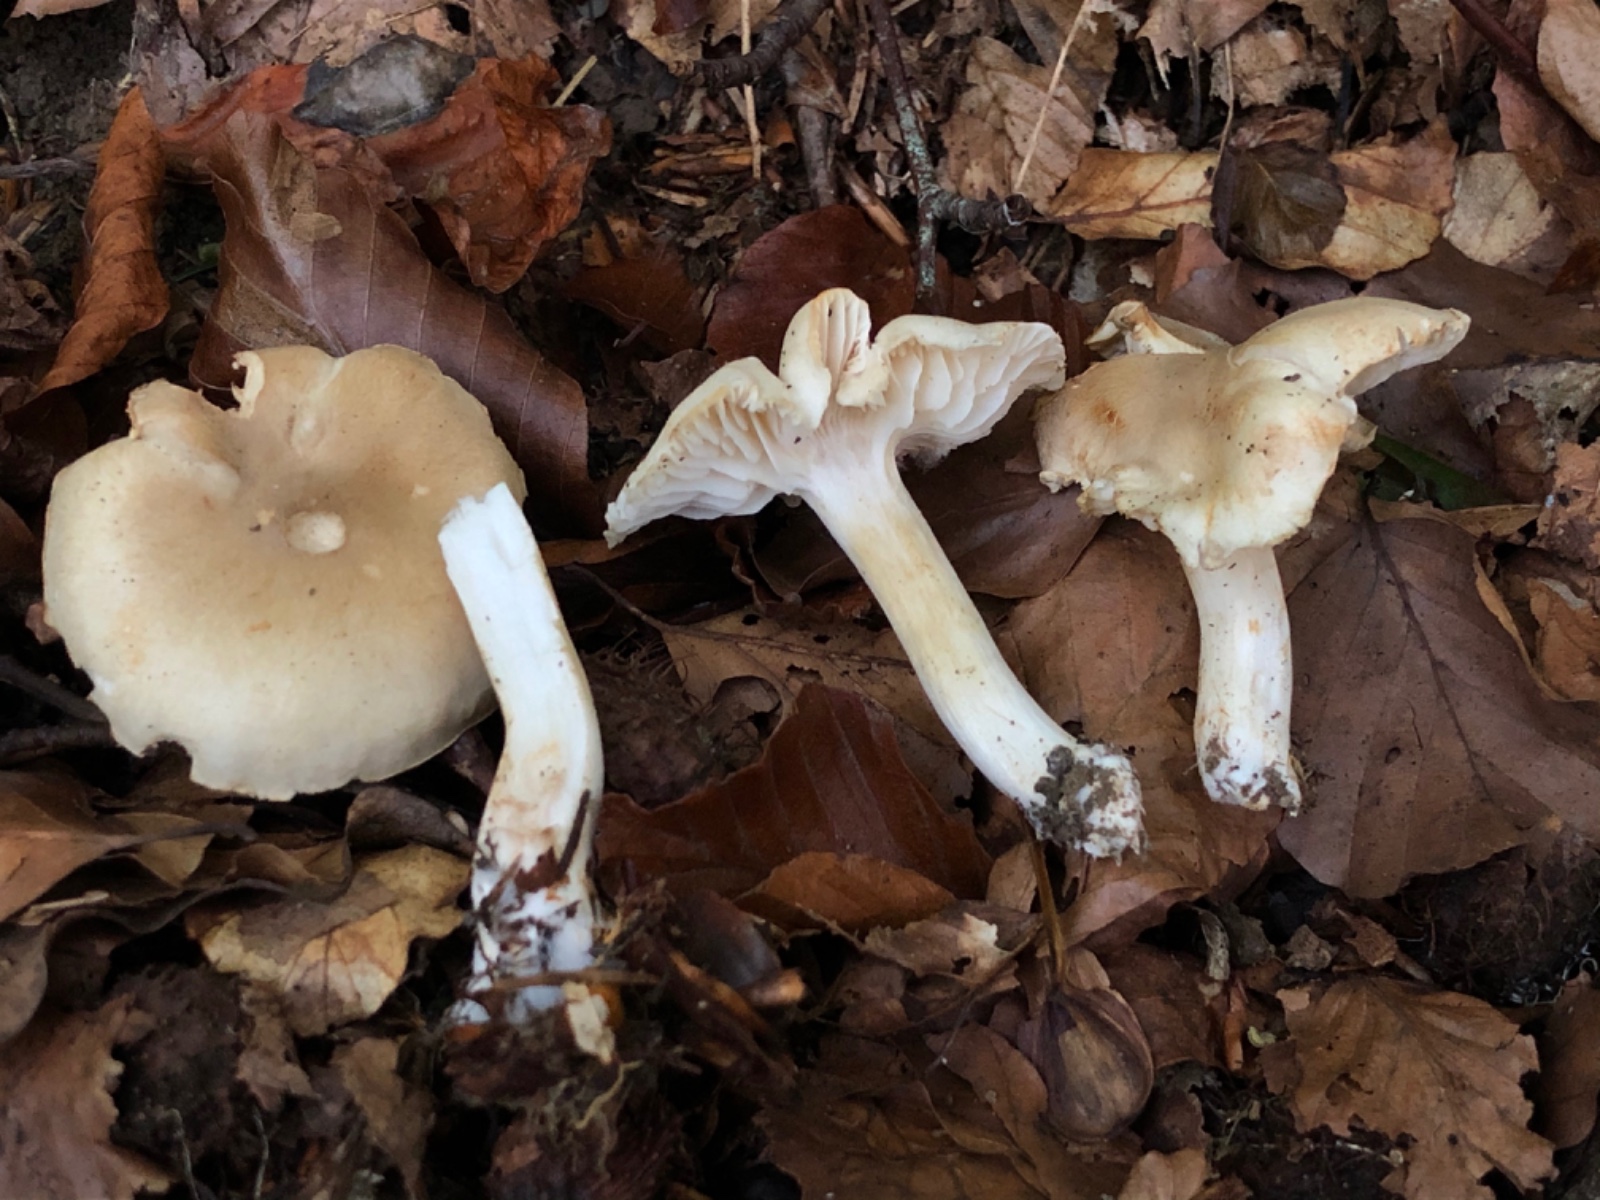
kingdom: Fungi
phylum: Basidiomycota
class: Agaricomycetes
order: Agaricales
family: Tricholomataceae
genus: Tricholoma
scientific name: Tricholoma lascivum
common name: stinkende ridderhat
